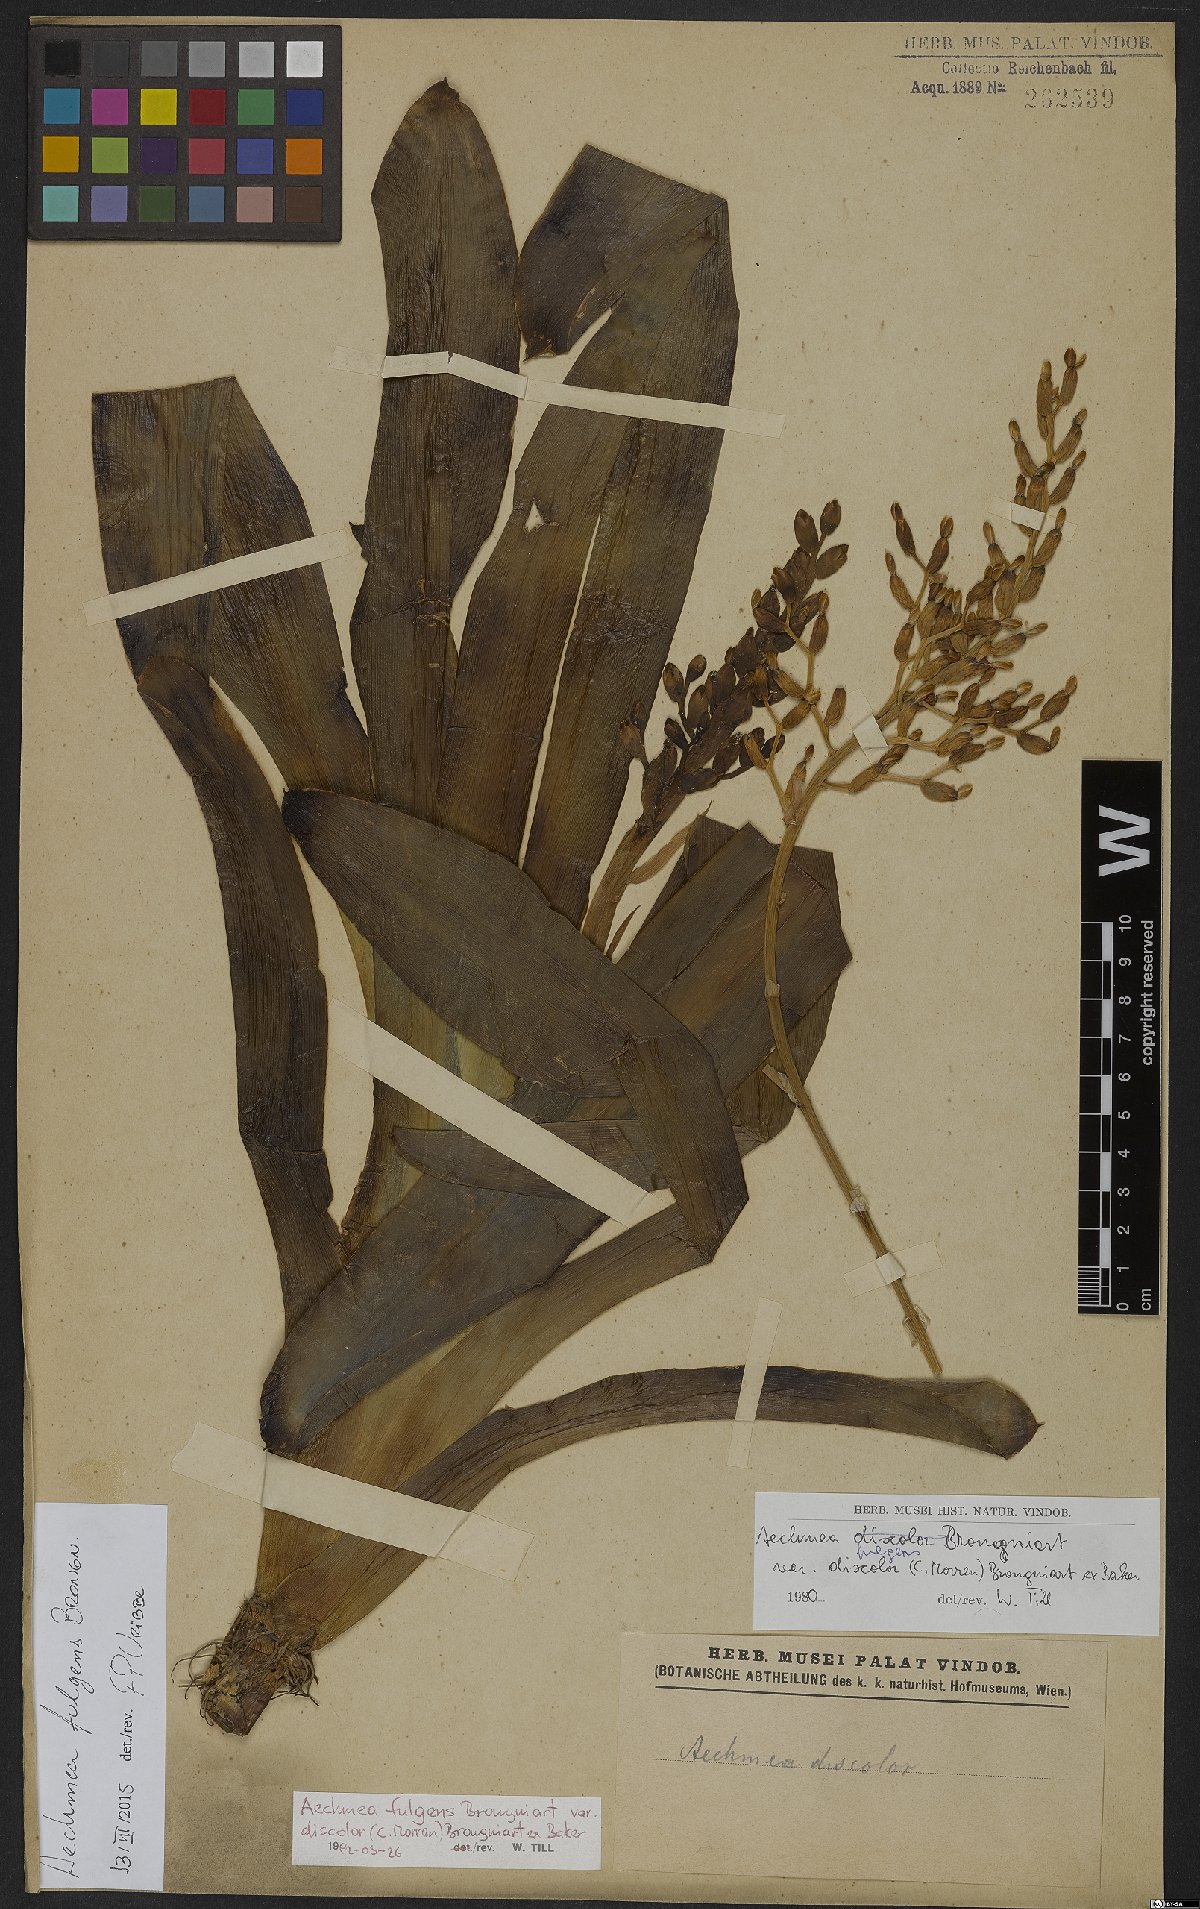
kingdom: Plantae
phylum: Tracheophyta
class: Liliopsida
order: Poales
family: Bromeliaceae
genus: Aechmea
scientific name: Aechmea fulgens
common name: Coralberry
